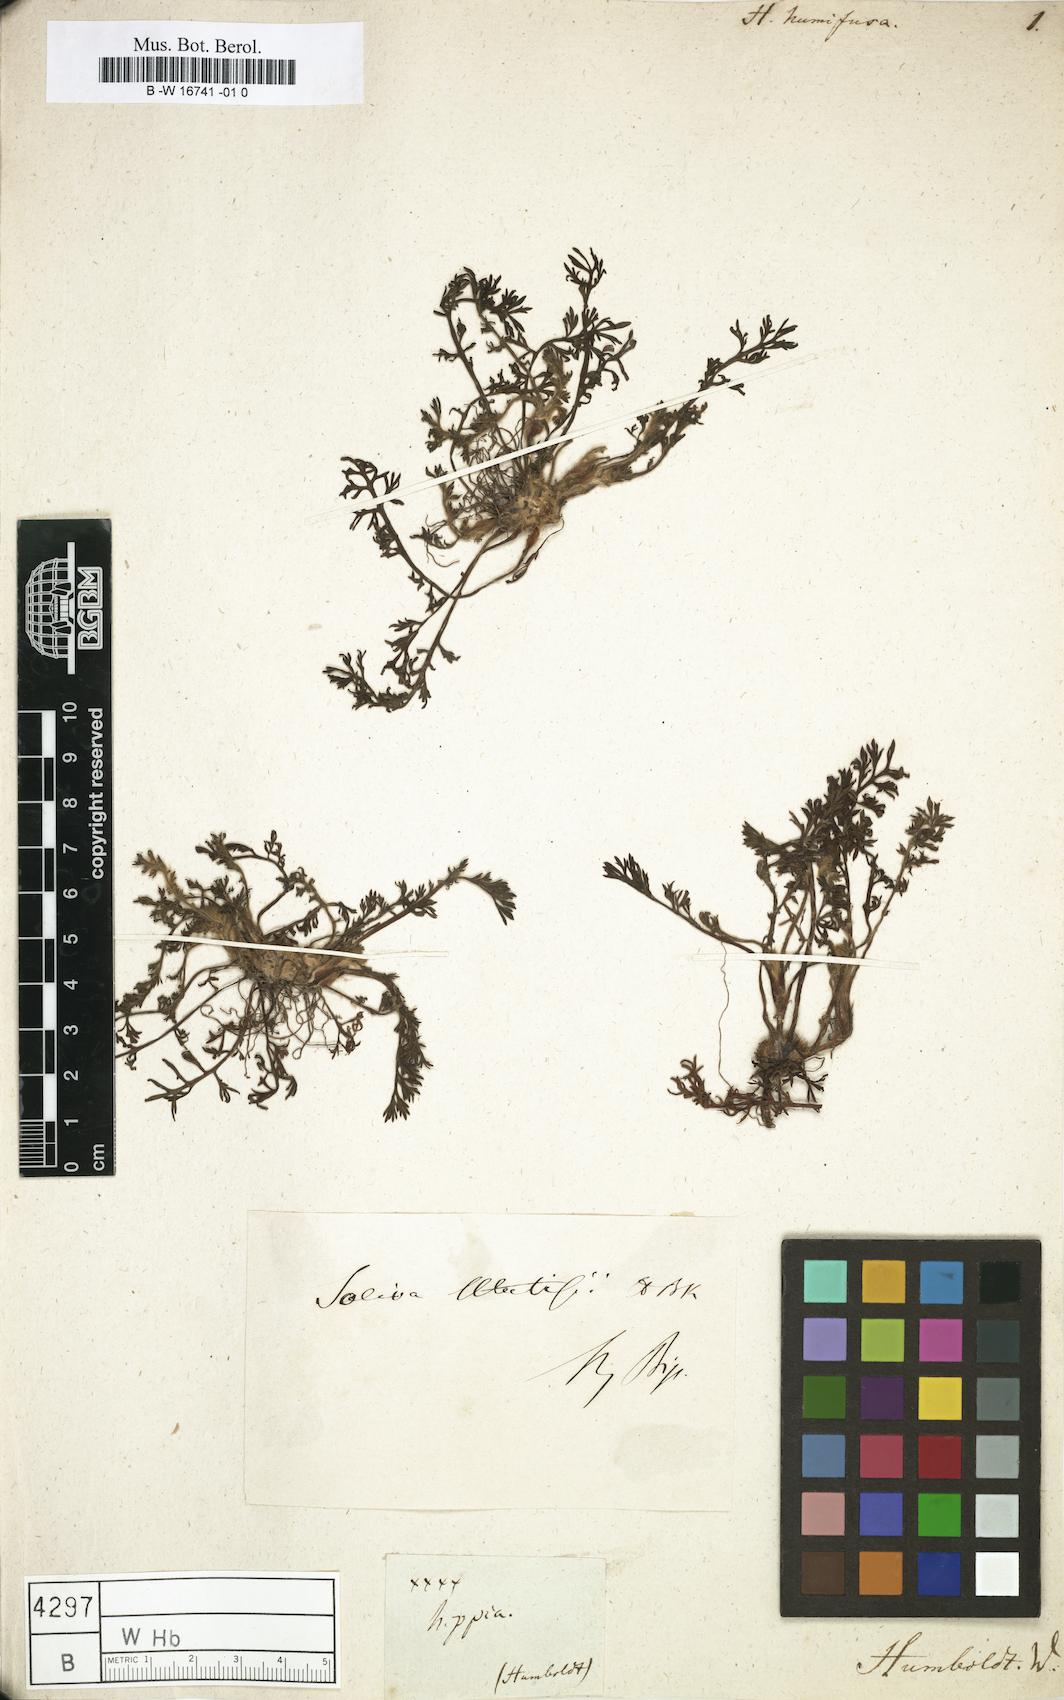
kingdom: Plantae
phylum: Tracheophyta
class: Magnoliopsida
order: Asterales
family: Asteraceae
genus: Hippia
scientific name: Hippia
